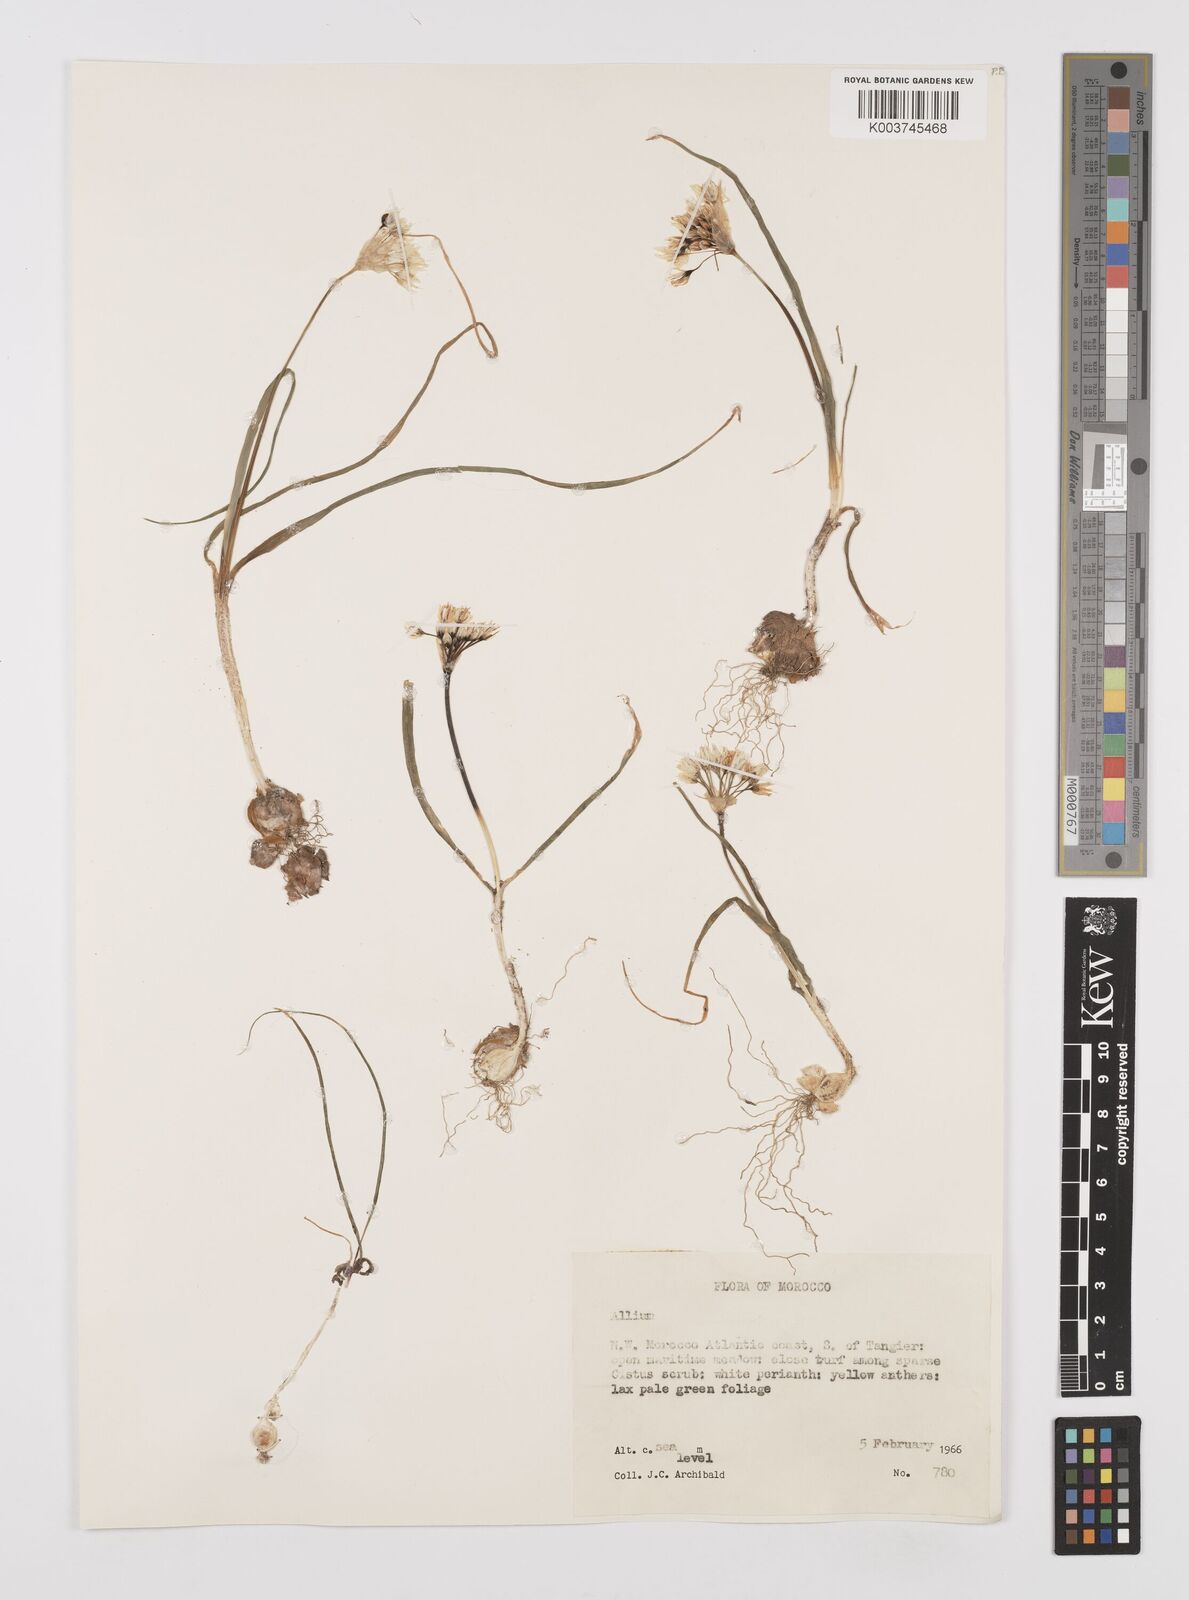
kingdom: Plantae
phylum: Tracheophyta
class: Liliopsida
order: Asparagales
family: Amaryllidaceae
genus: Allium
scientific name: Allium subhirsutum
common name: Hairy garlic
